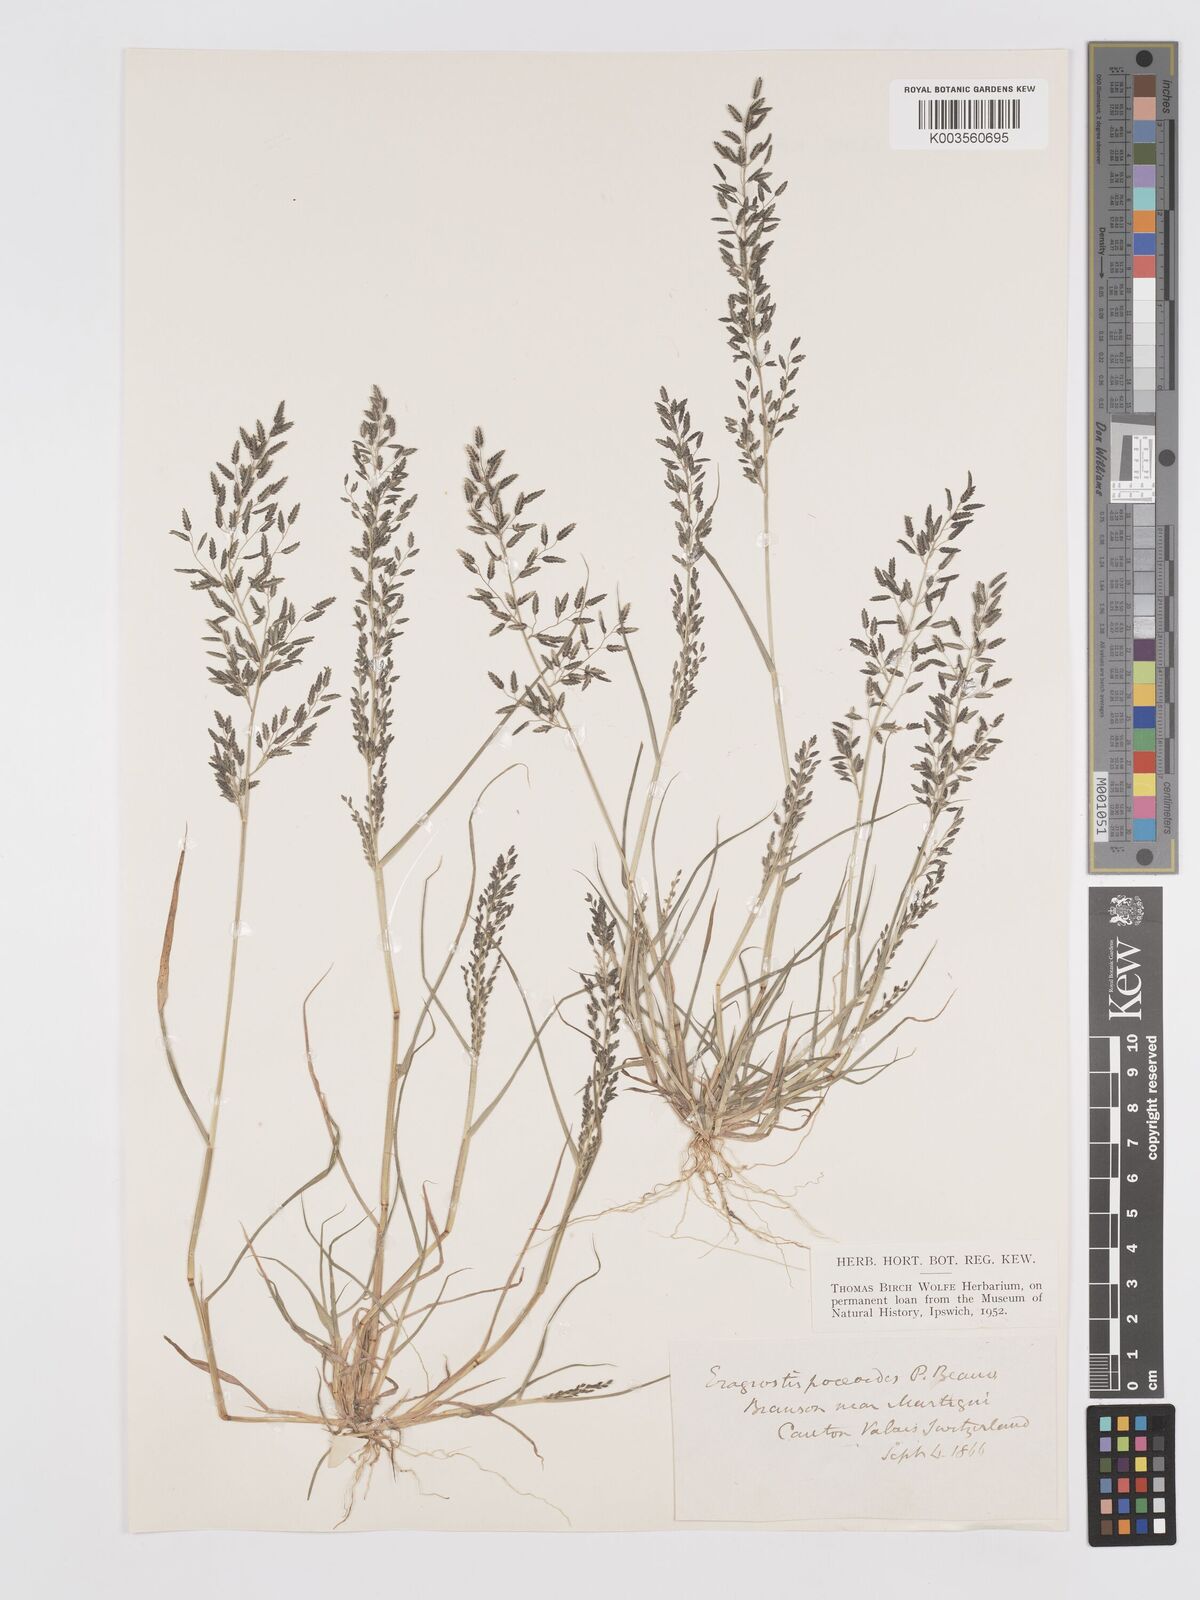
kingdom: Plantae
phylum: Tracheophyta
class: Liliopsida
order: Poales
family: Poaceae
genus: Eragrostis
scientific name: Eragrostis minor
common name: Small love-grass
